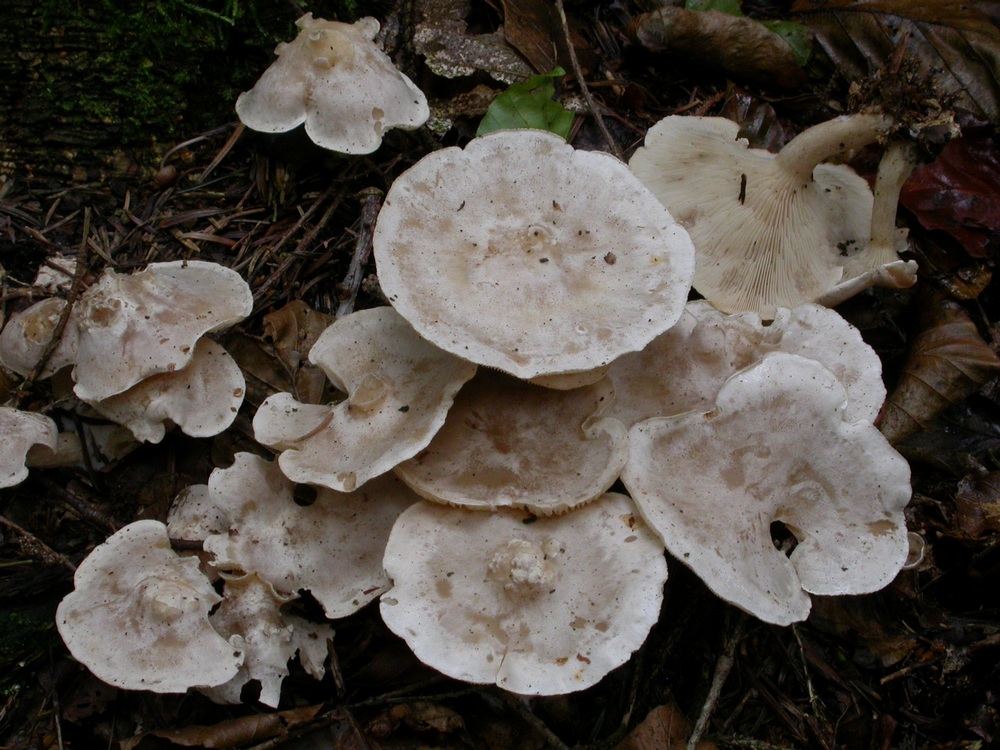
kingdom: Fungi
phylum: Basidiomycota
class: Agaricomycetes
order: Agaricales
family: Tricholomataceae
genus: Clitocybe
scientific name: Clitocybe phyllophila
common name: løv-tragthat
